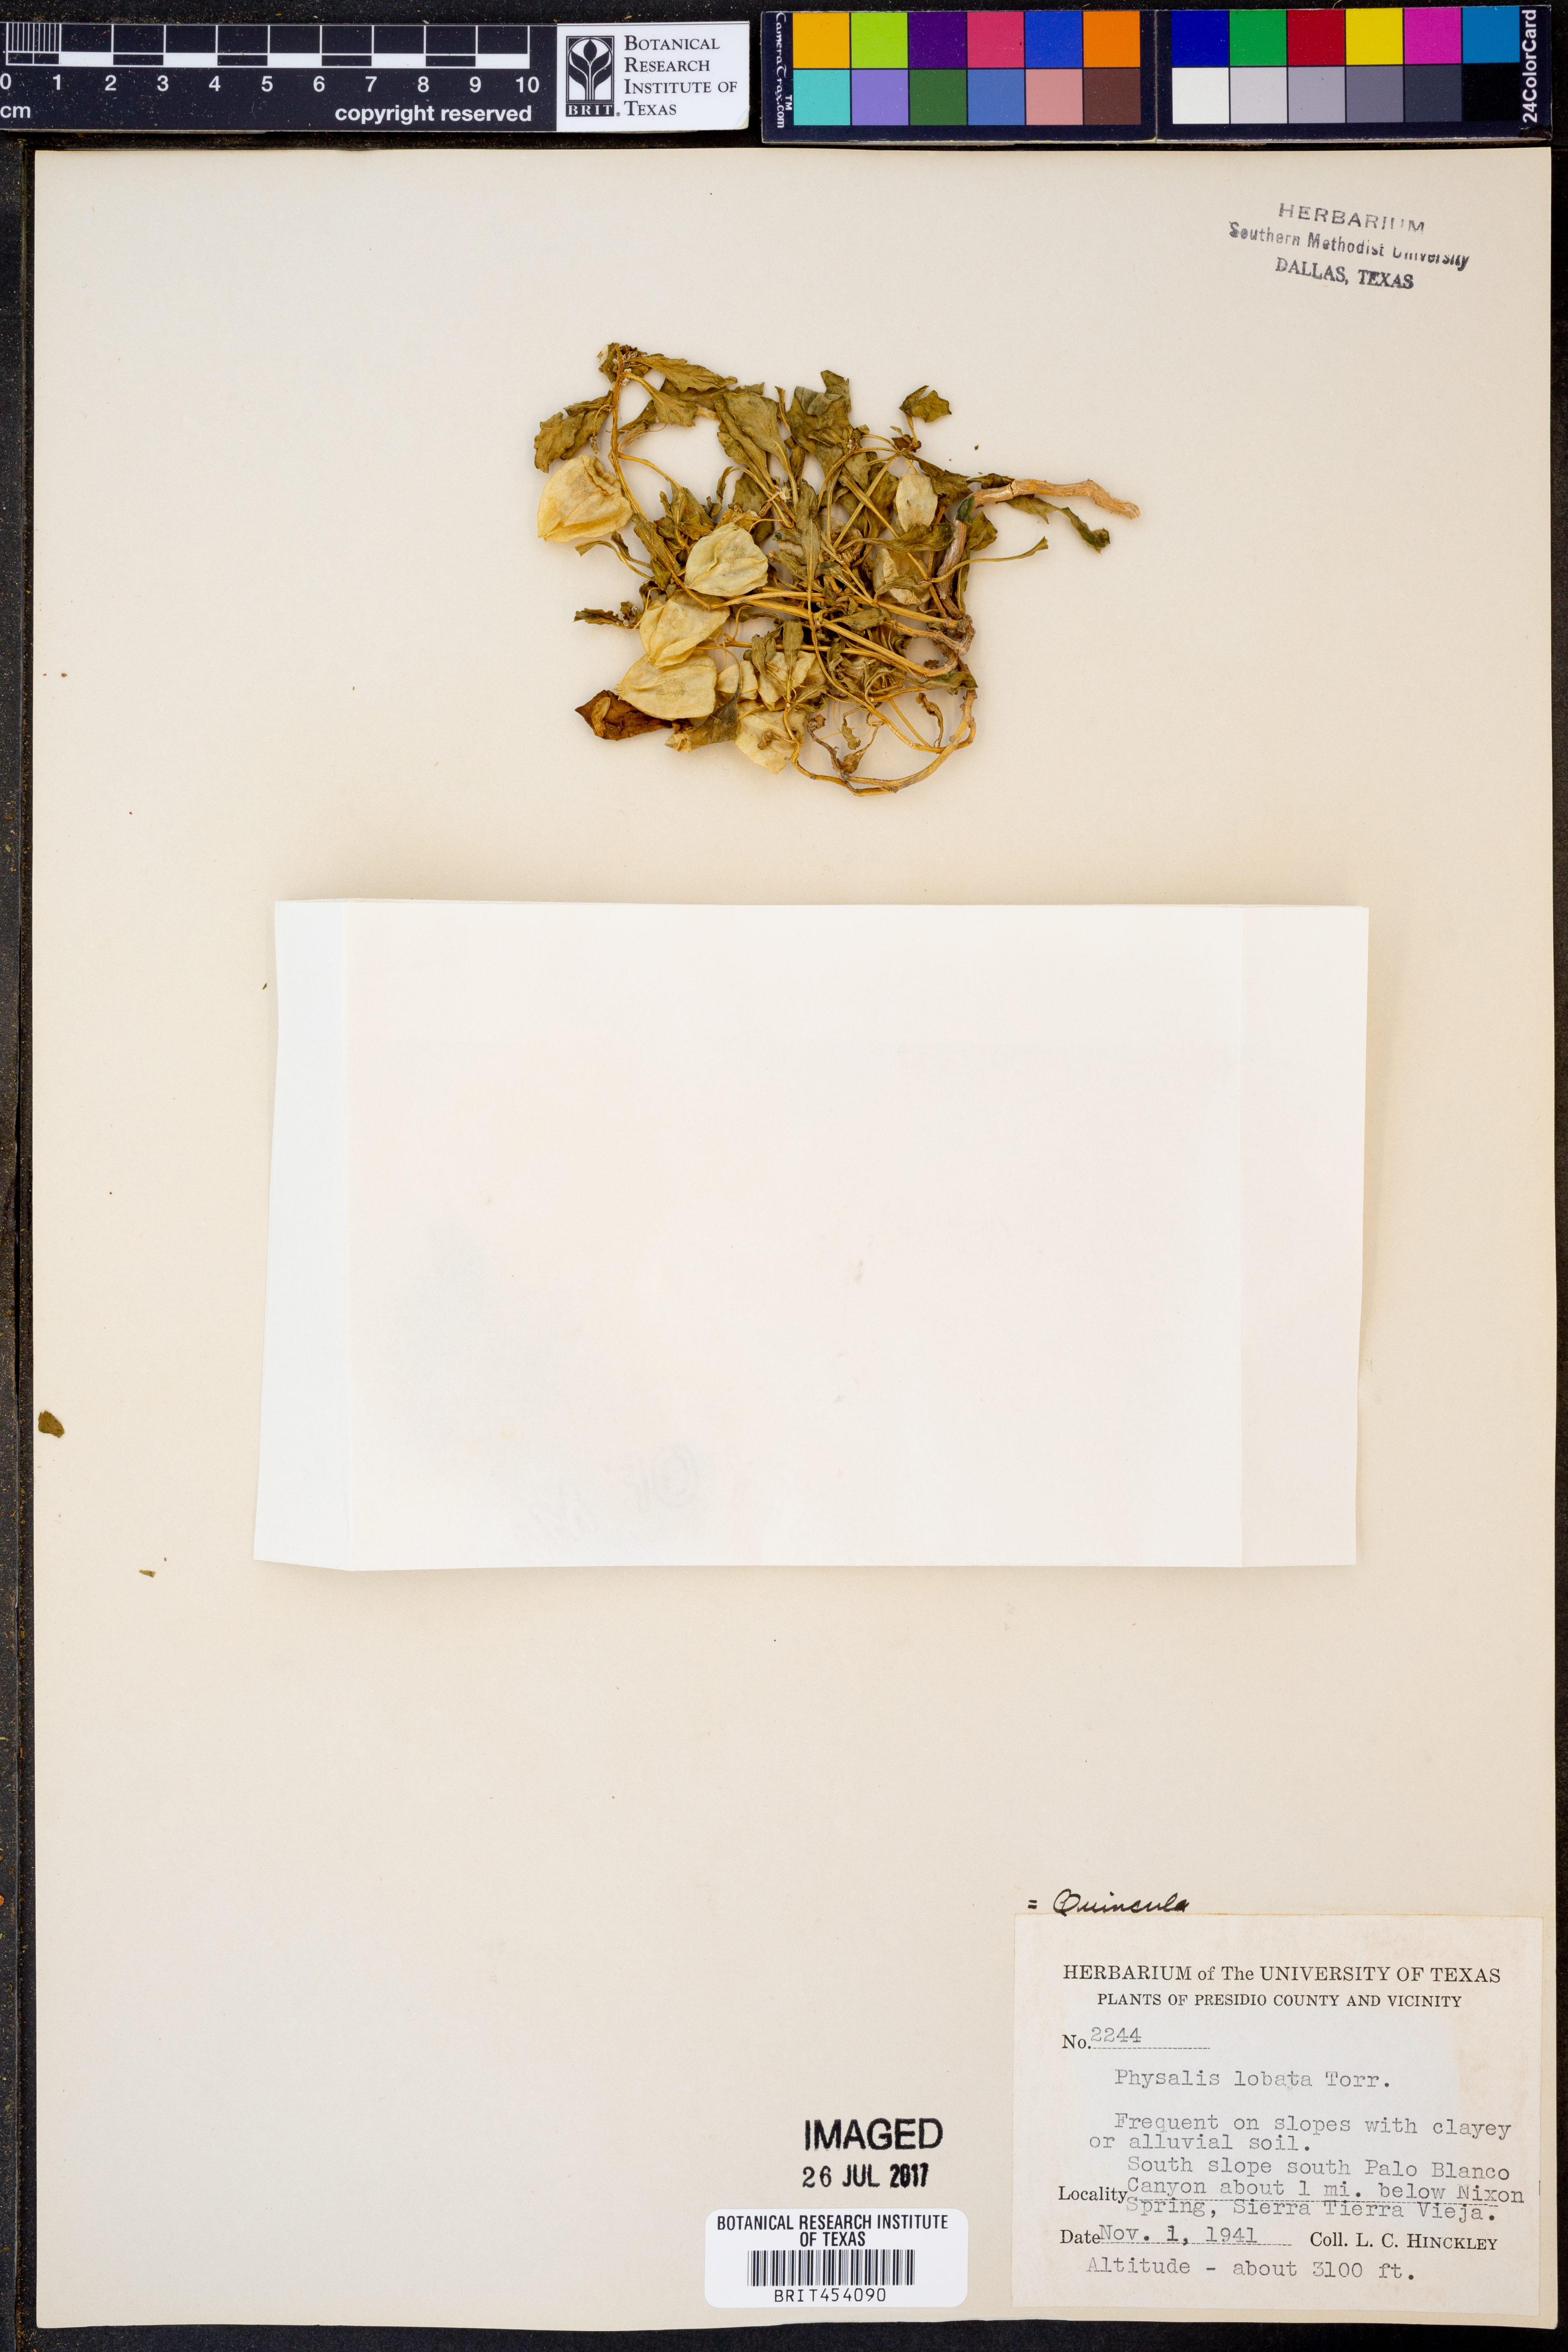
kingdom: Plantae
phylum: Tracheophyta
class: Magnoliopsida
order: Solanales
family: Solanaceae
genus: Quincula
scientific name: Quincula lobata
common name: Purple-ground-cherry
